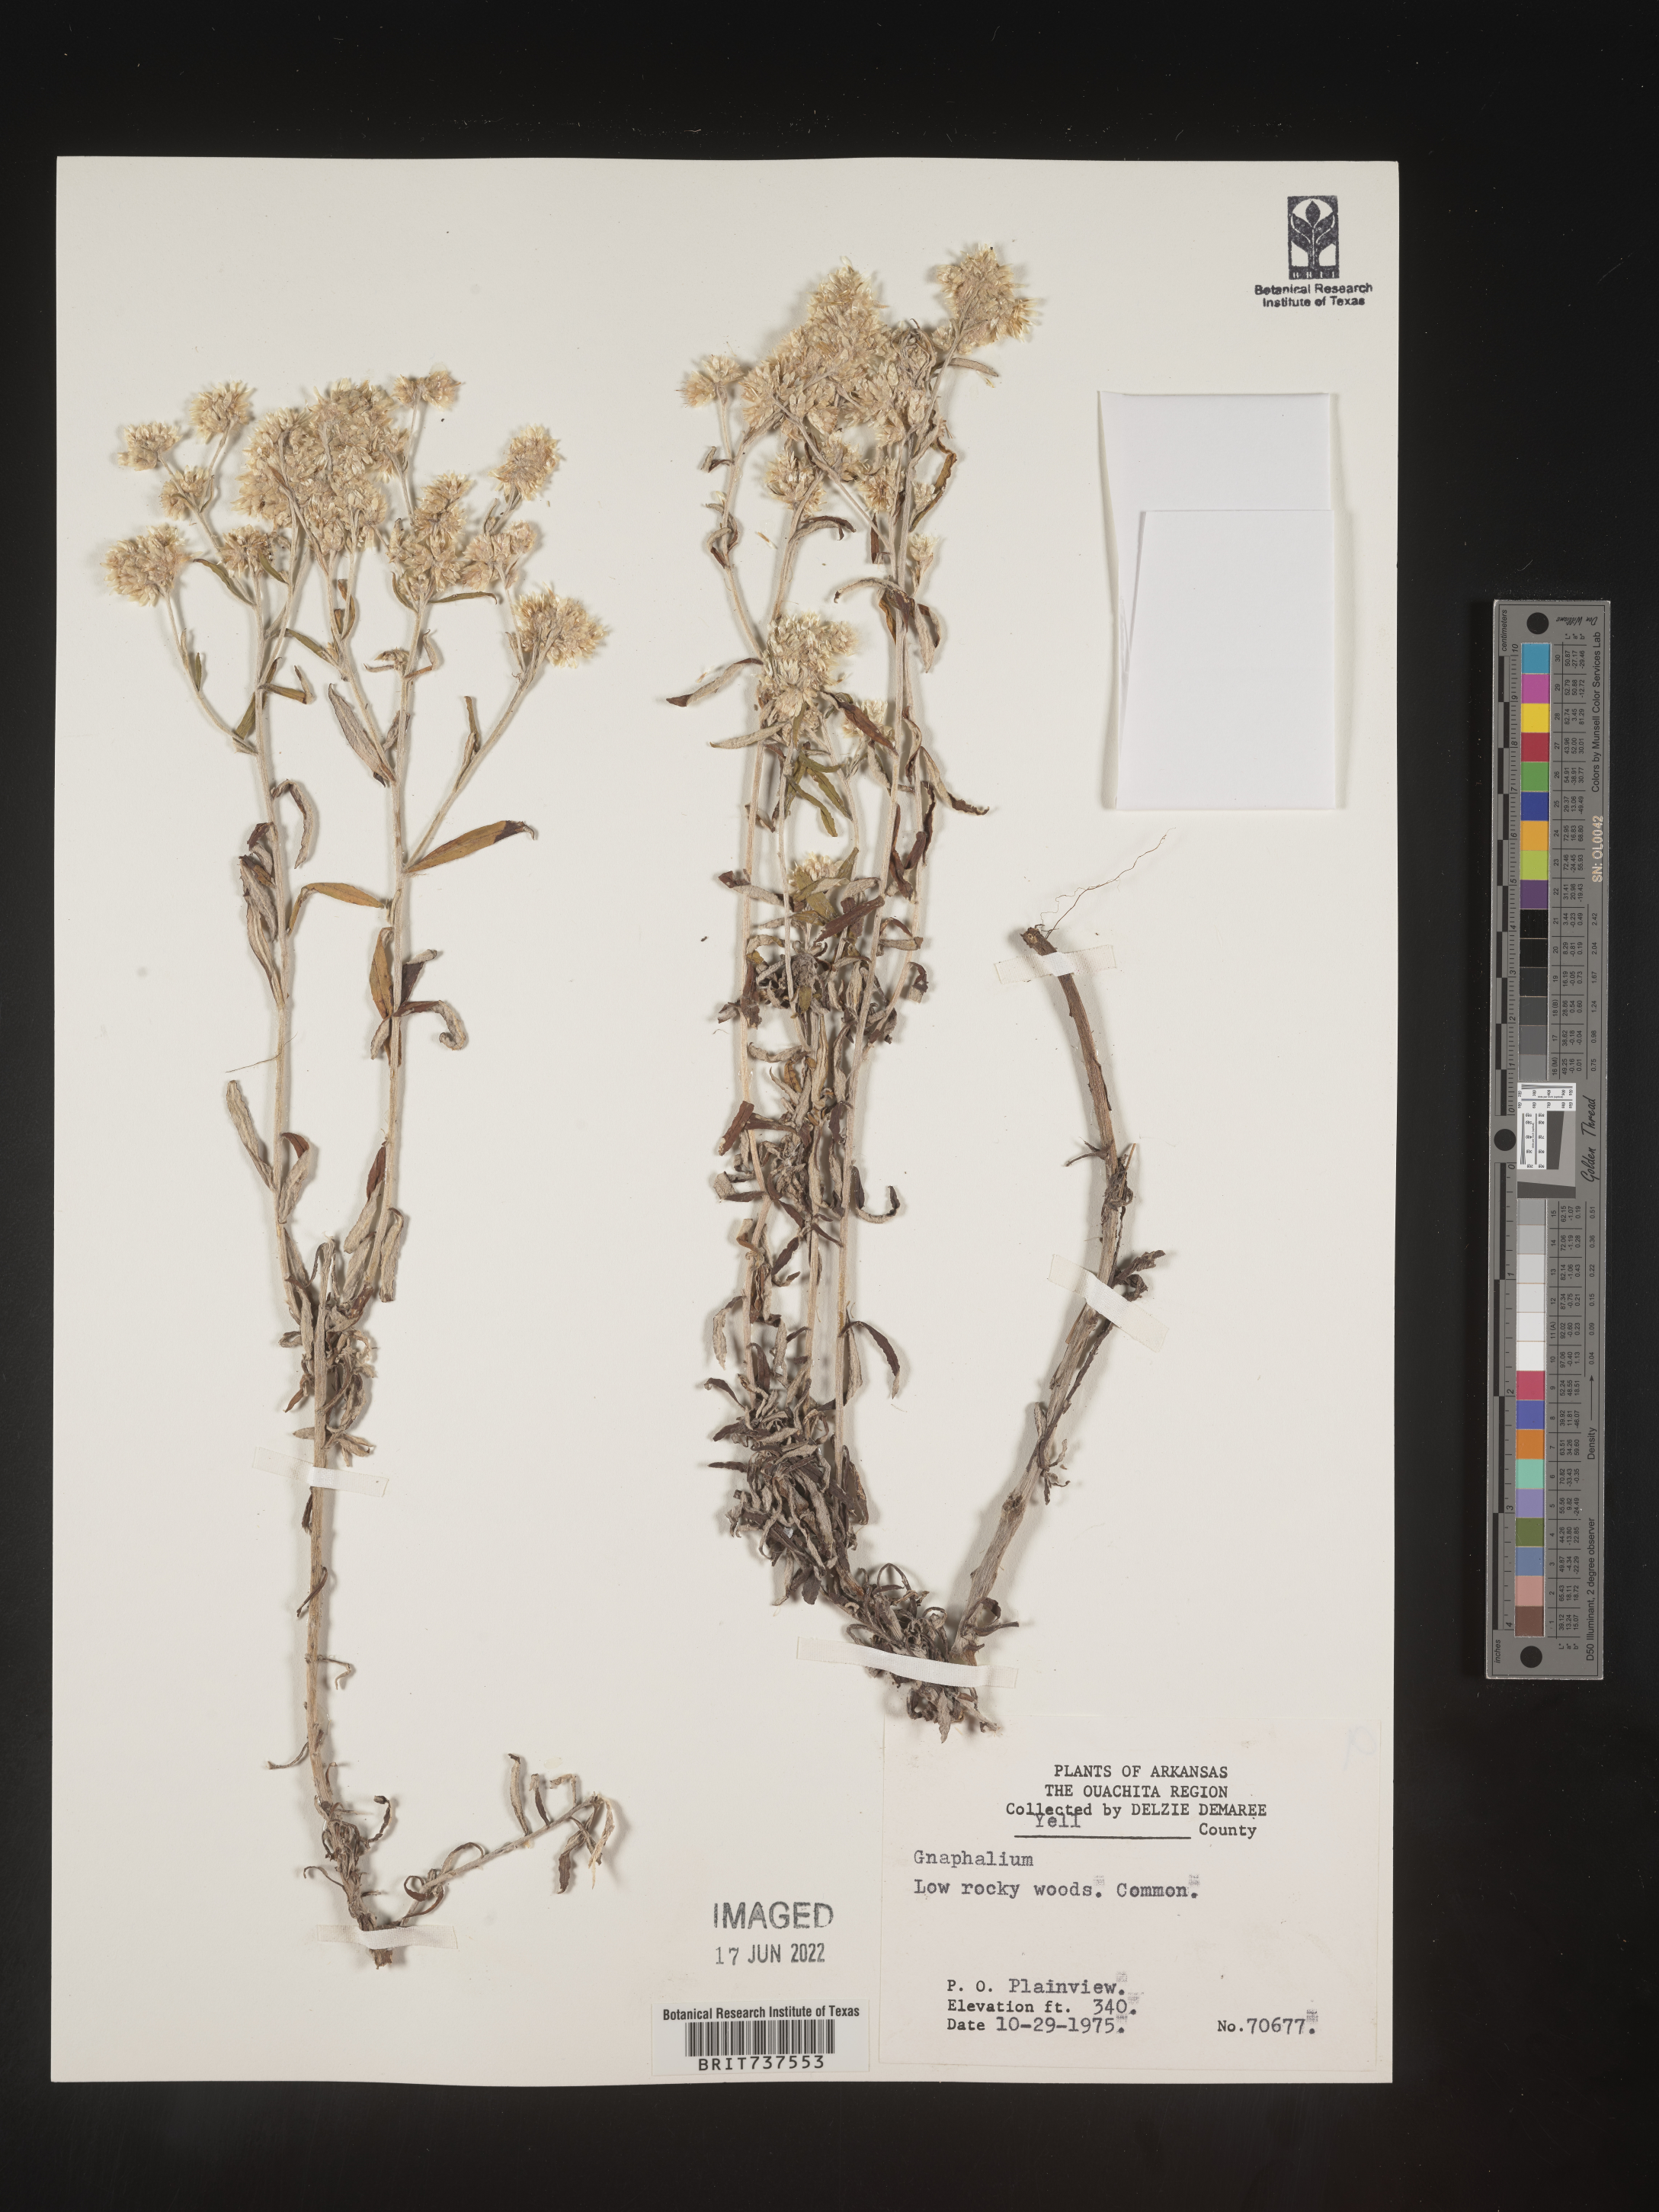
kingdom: Plantae
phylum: Tracheophyta
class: Magnoliopsida
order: Asterales
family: Asteraceae
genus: Pseudognaphalium
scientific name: Pseudognaphalium obtusifolium
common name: Eastern rabbit-tobacco
